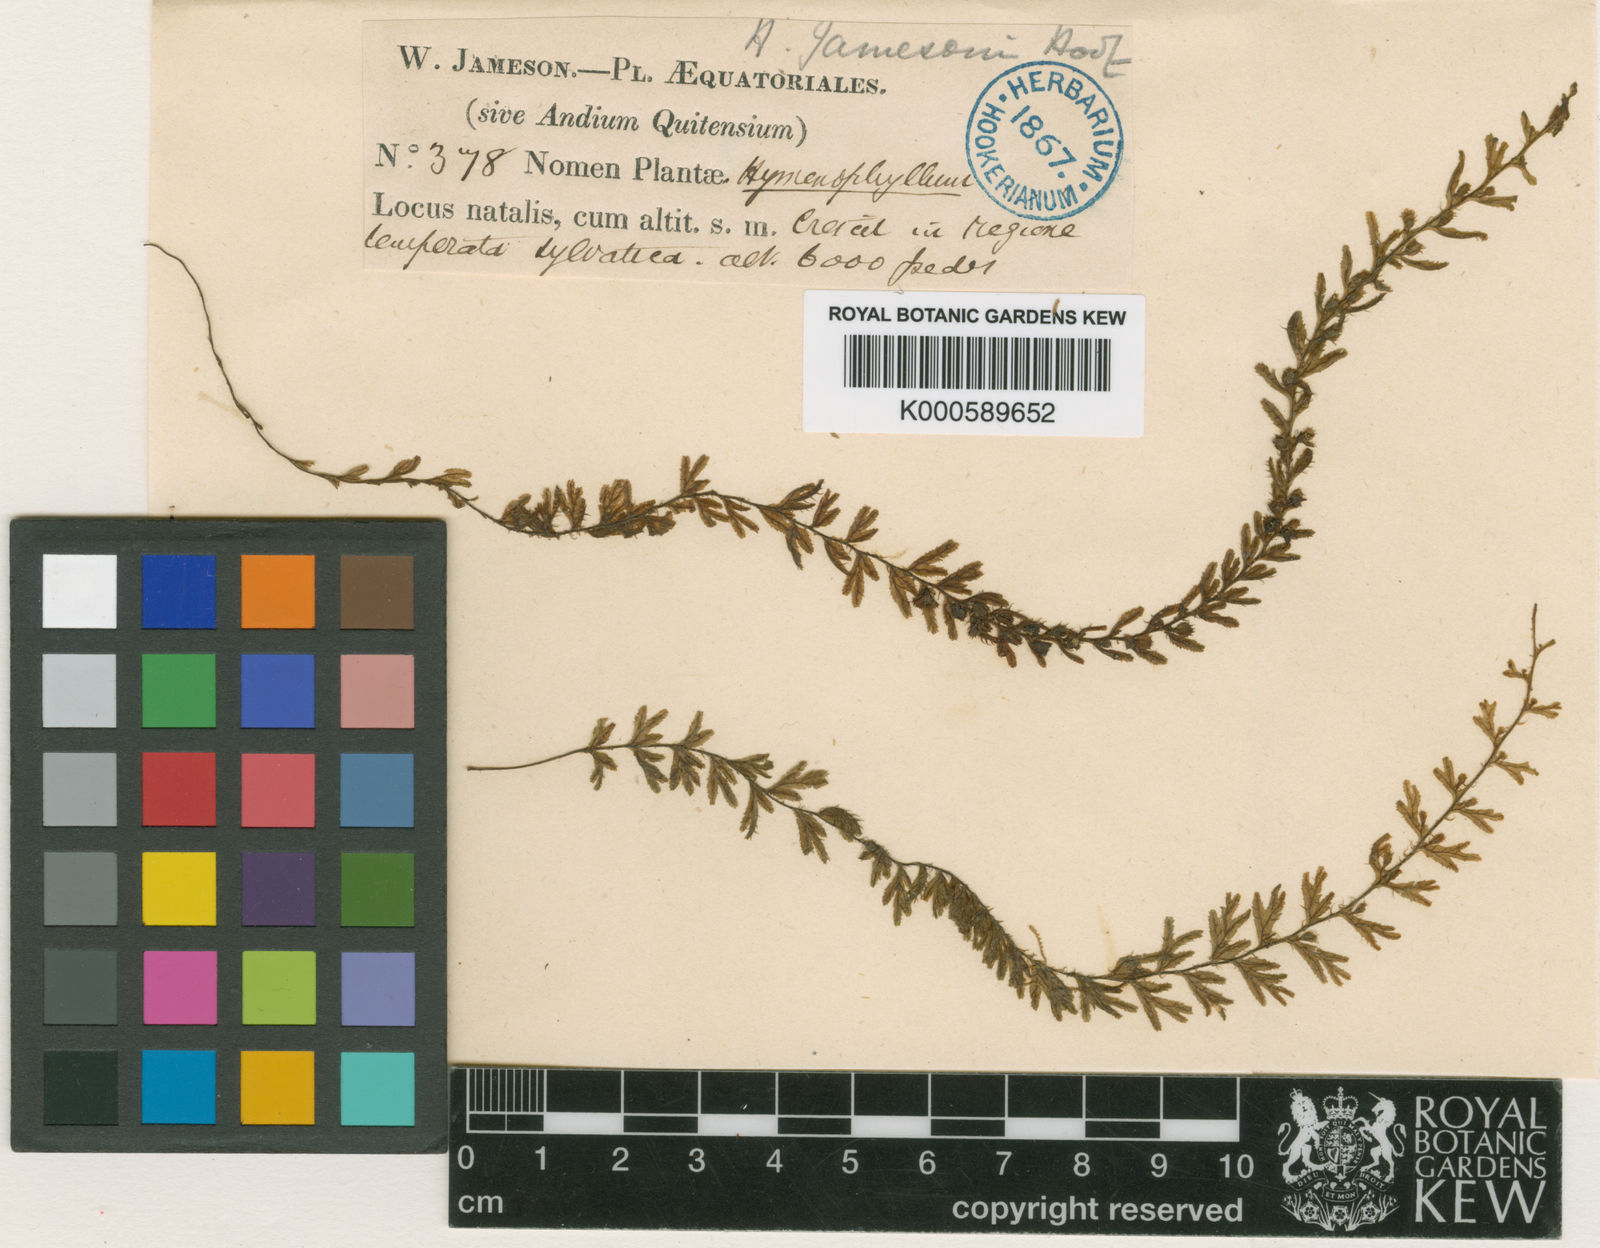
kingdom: Plantae
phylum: Tracheophyta
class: Polypodiopsida
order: Hymenophyllales
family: Hymenophyllaceae
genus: Hymenophyllum
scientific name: Hymenophyllum jamesonii
